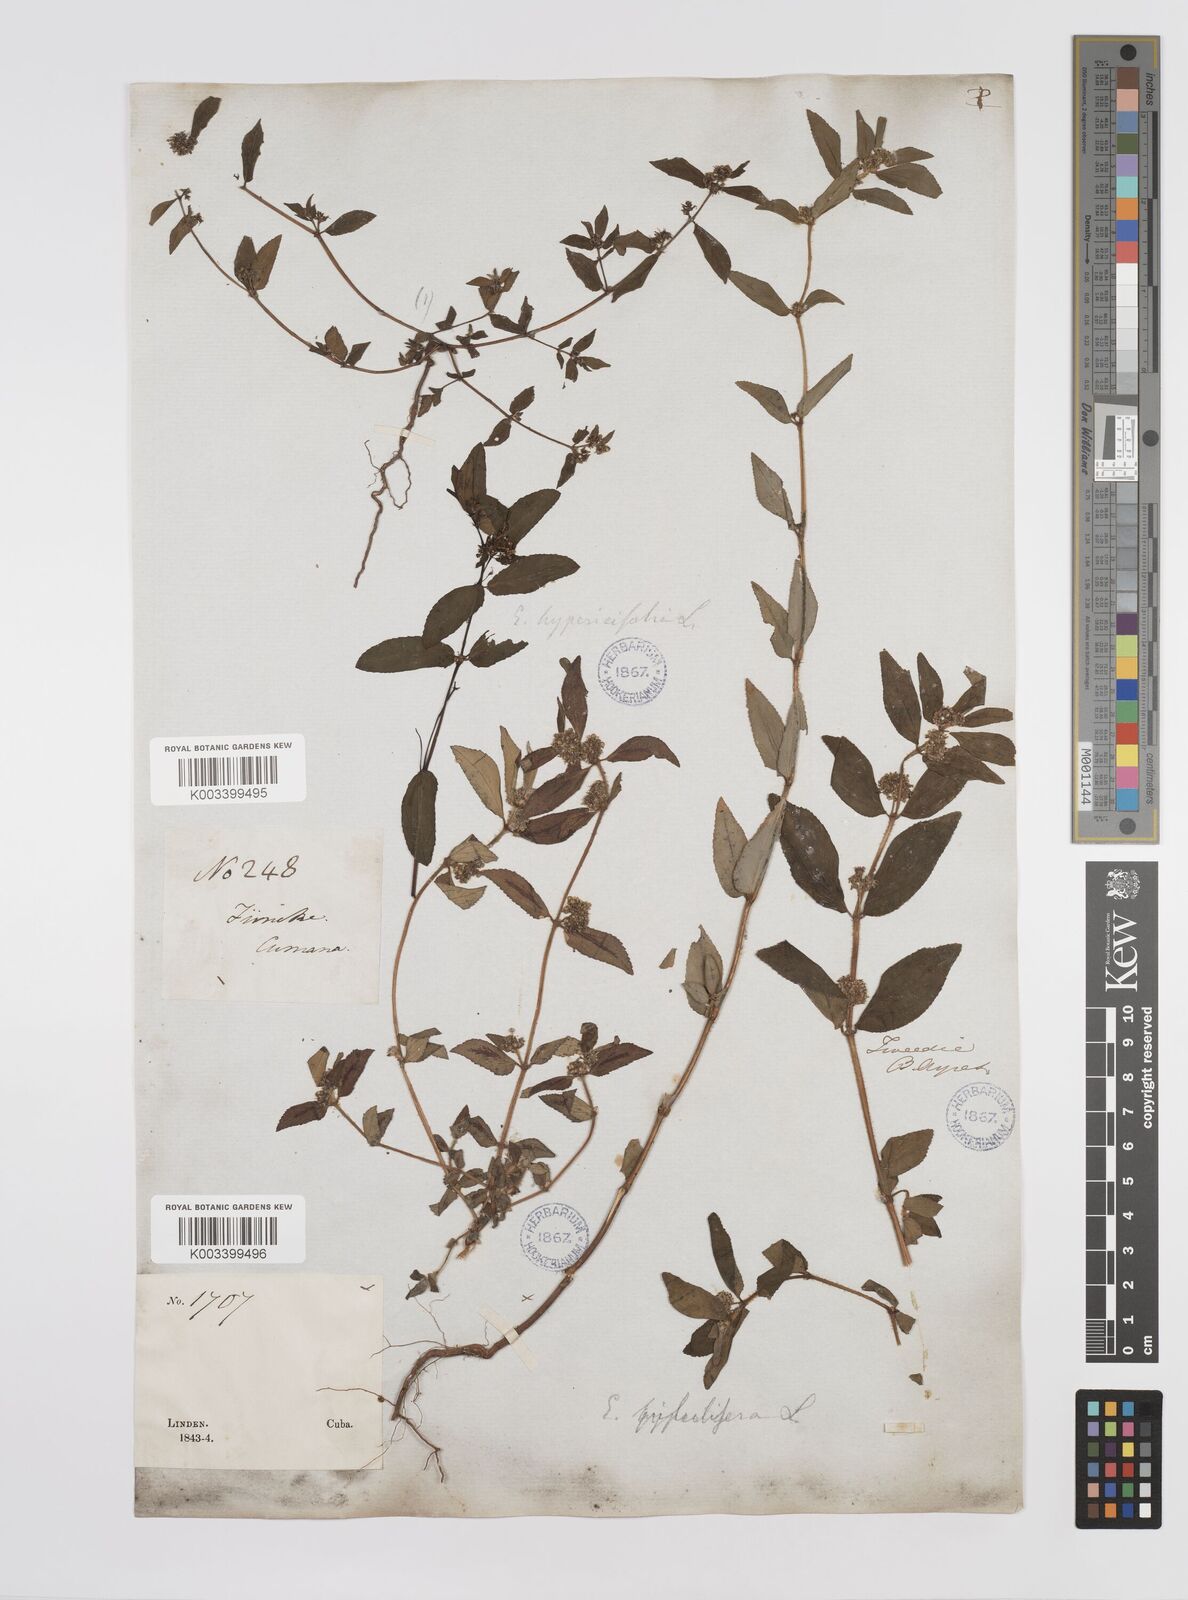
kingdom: Plantae
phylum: Tracheophyta
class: Magnoliopsida
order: Malpighiales
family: Euphorbiaceae
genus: Euphorbia
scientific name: Euphorbia hirta
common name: Pillpod sandmat
